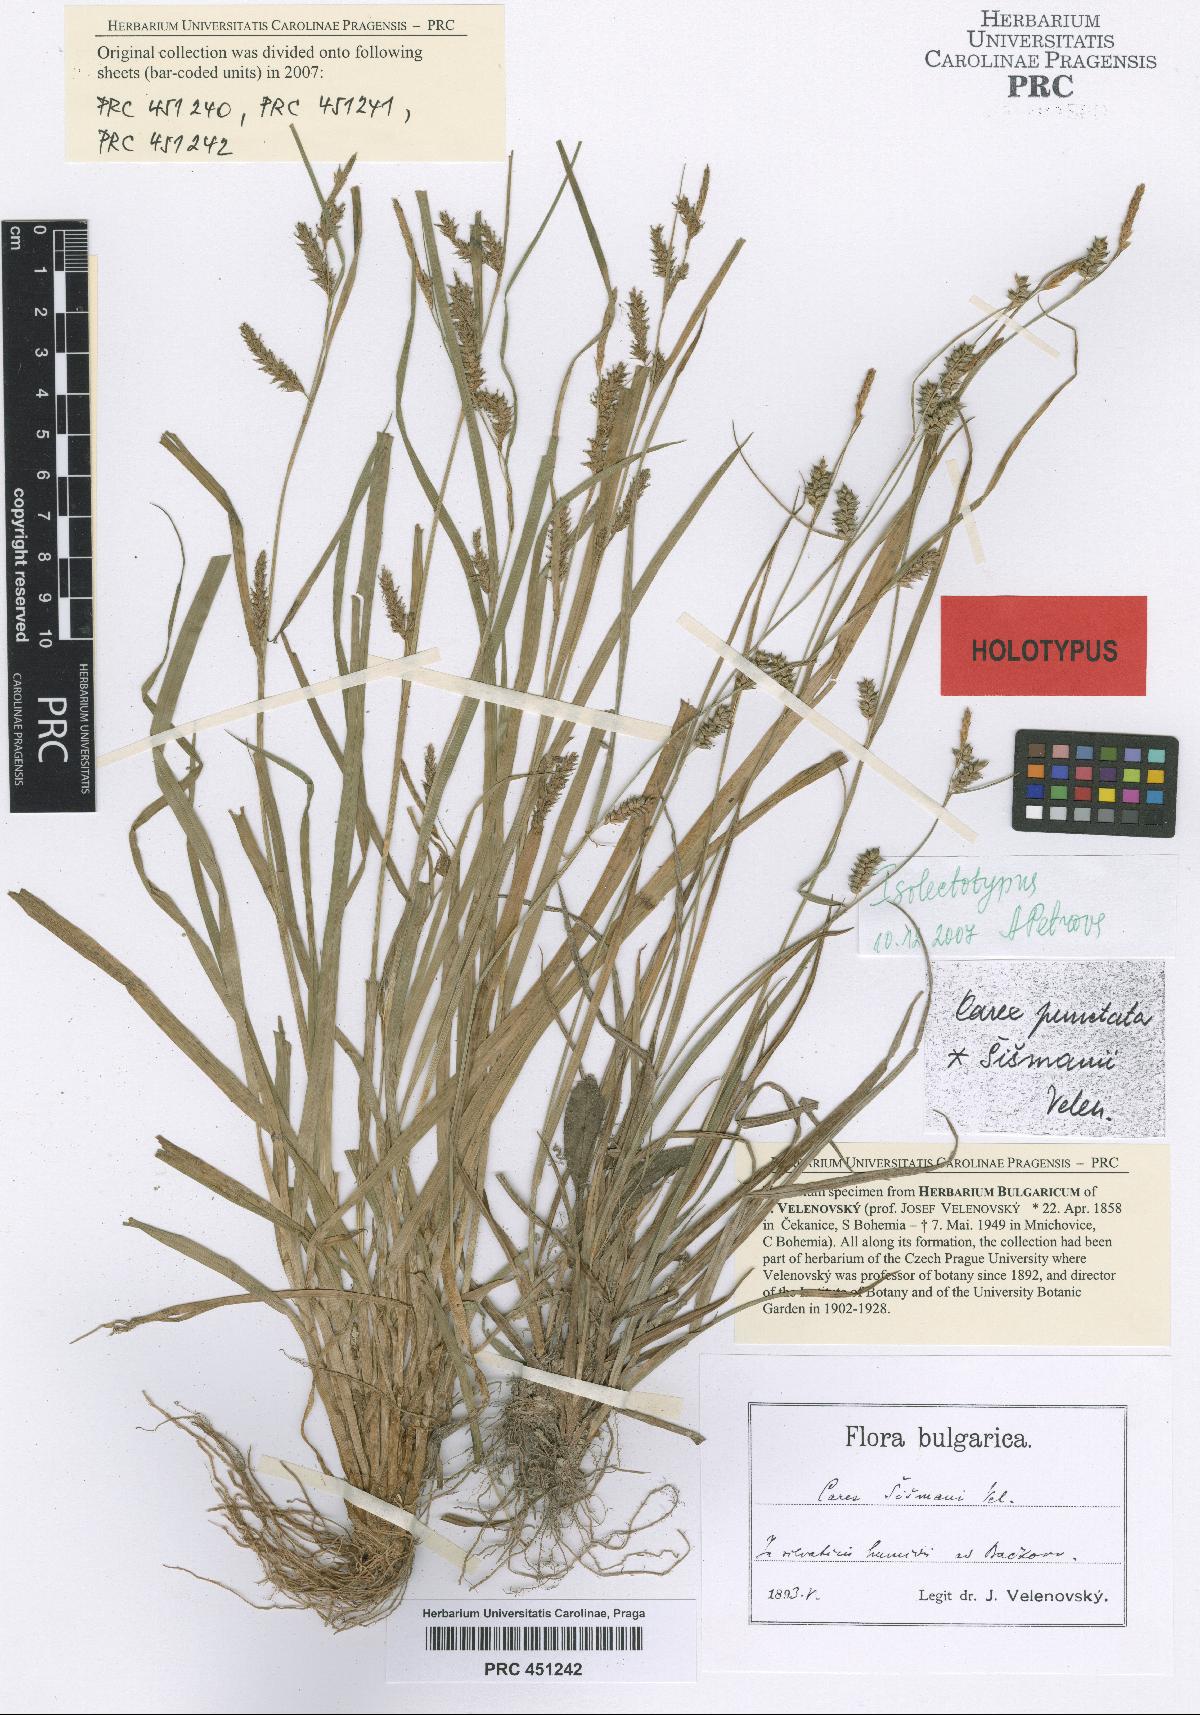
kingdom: Plantae
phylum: Tracheophyta
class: Liliopsida
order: Poales
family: Cyperaceae
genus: Carex
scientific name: Carex punctata
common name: Dotted sedge
